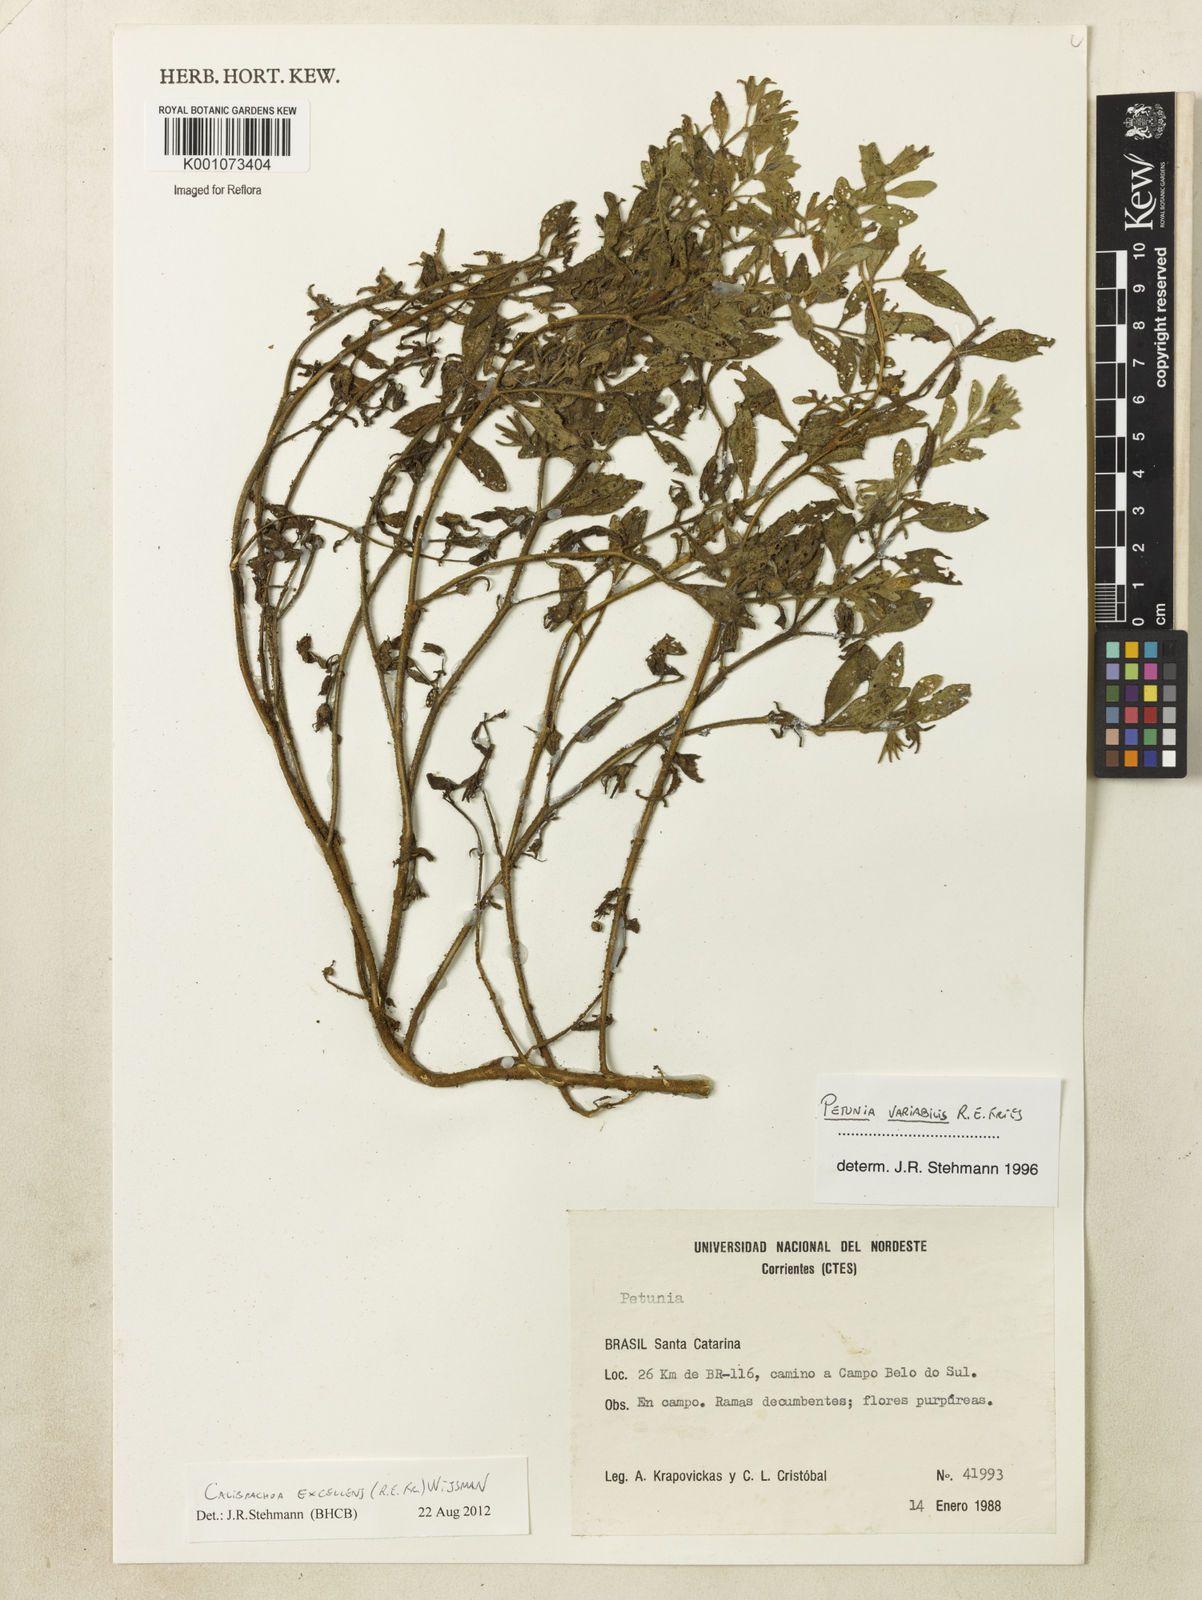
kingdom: Plantae
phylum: Tracheophyta
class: Magnoliopsida
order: Solanales
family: Solanaceae
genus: Calibrachoa
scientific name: Calibrachoa excellens
